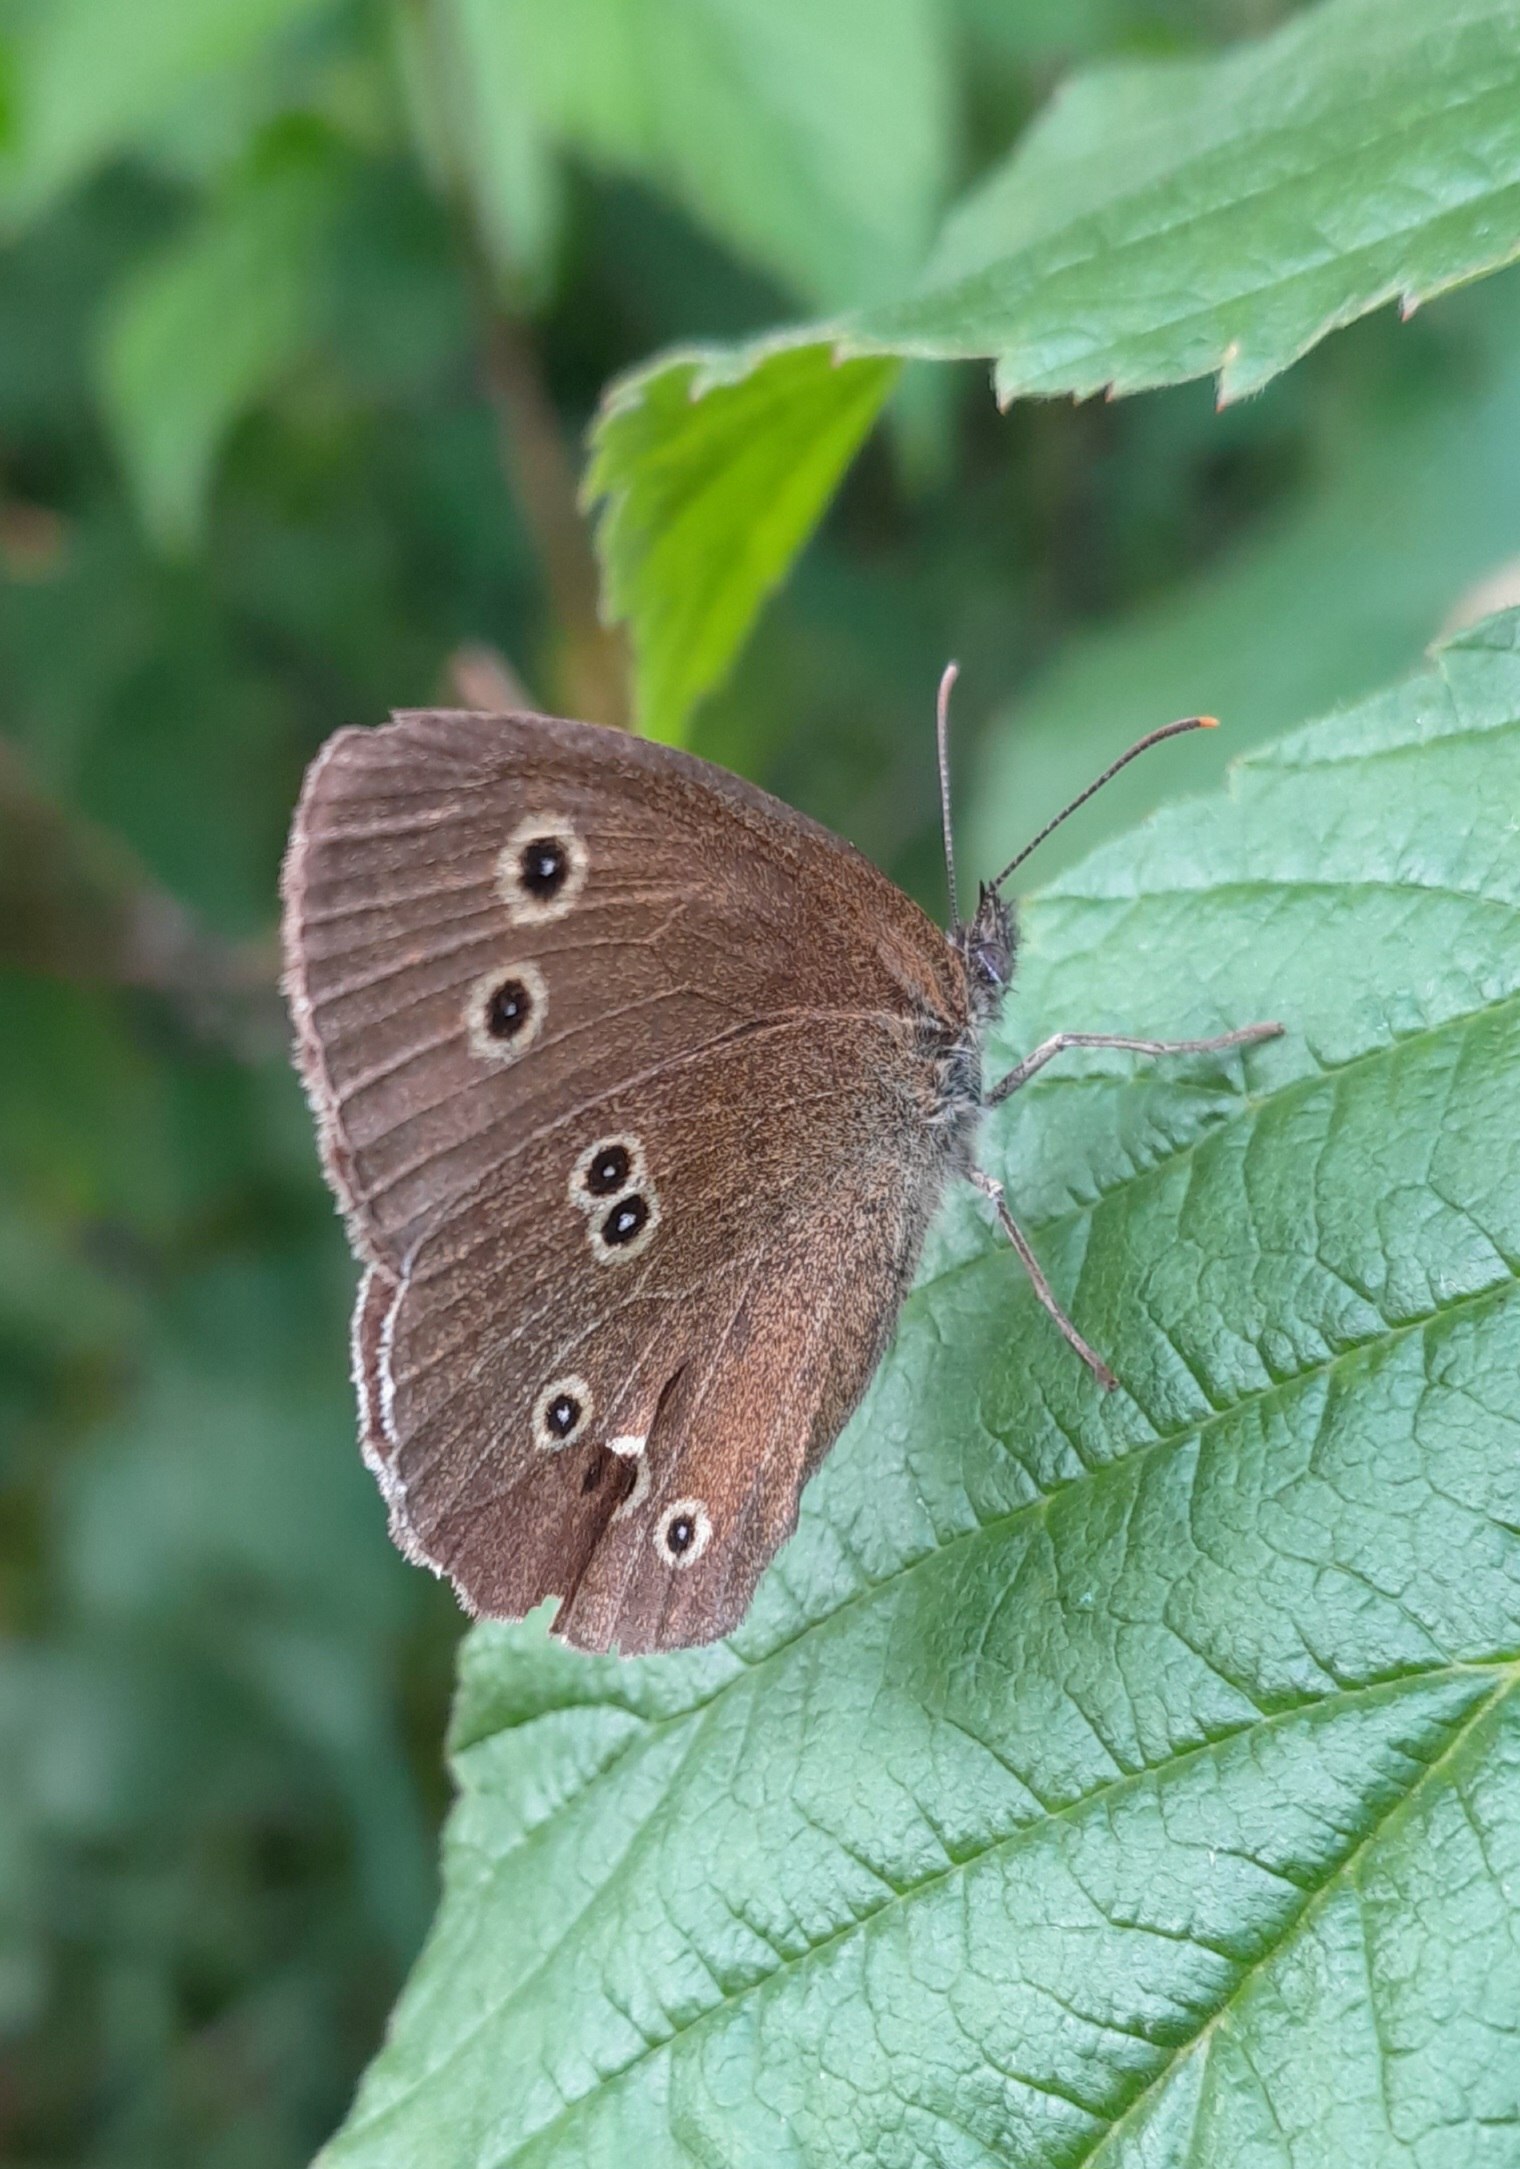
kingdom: Animalia
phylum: Arthropoda
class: Insecta
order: Lepidoptera
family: Nymphalidae
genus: Aphantopus
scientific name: Aphantopus hyperantus
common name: Engrandøje
